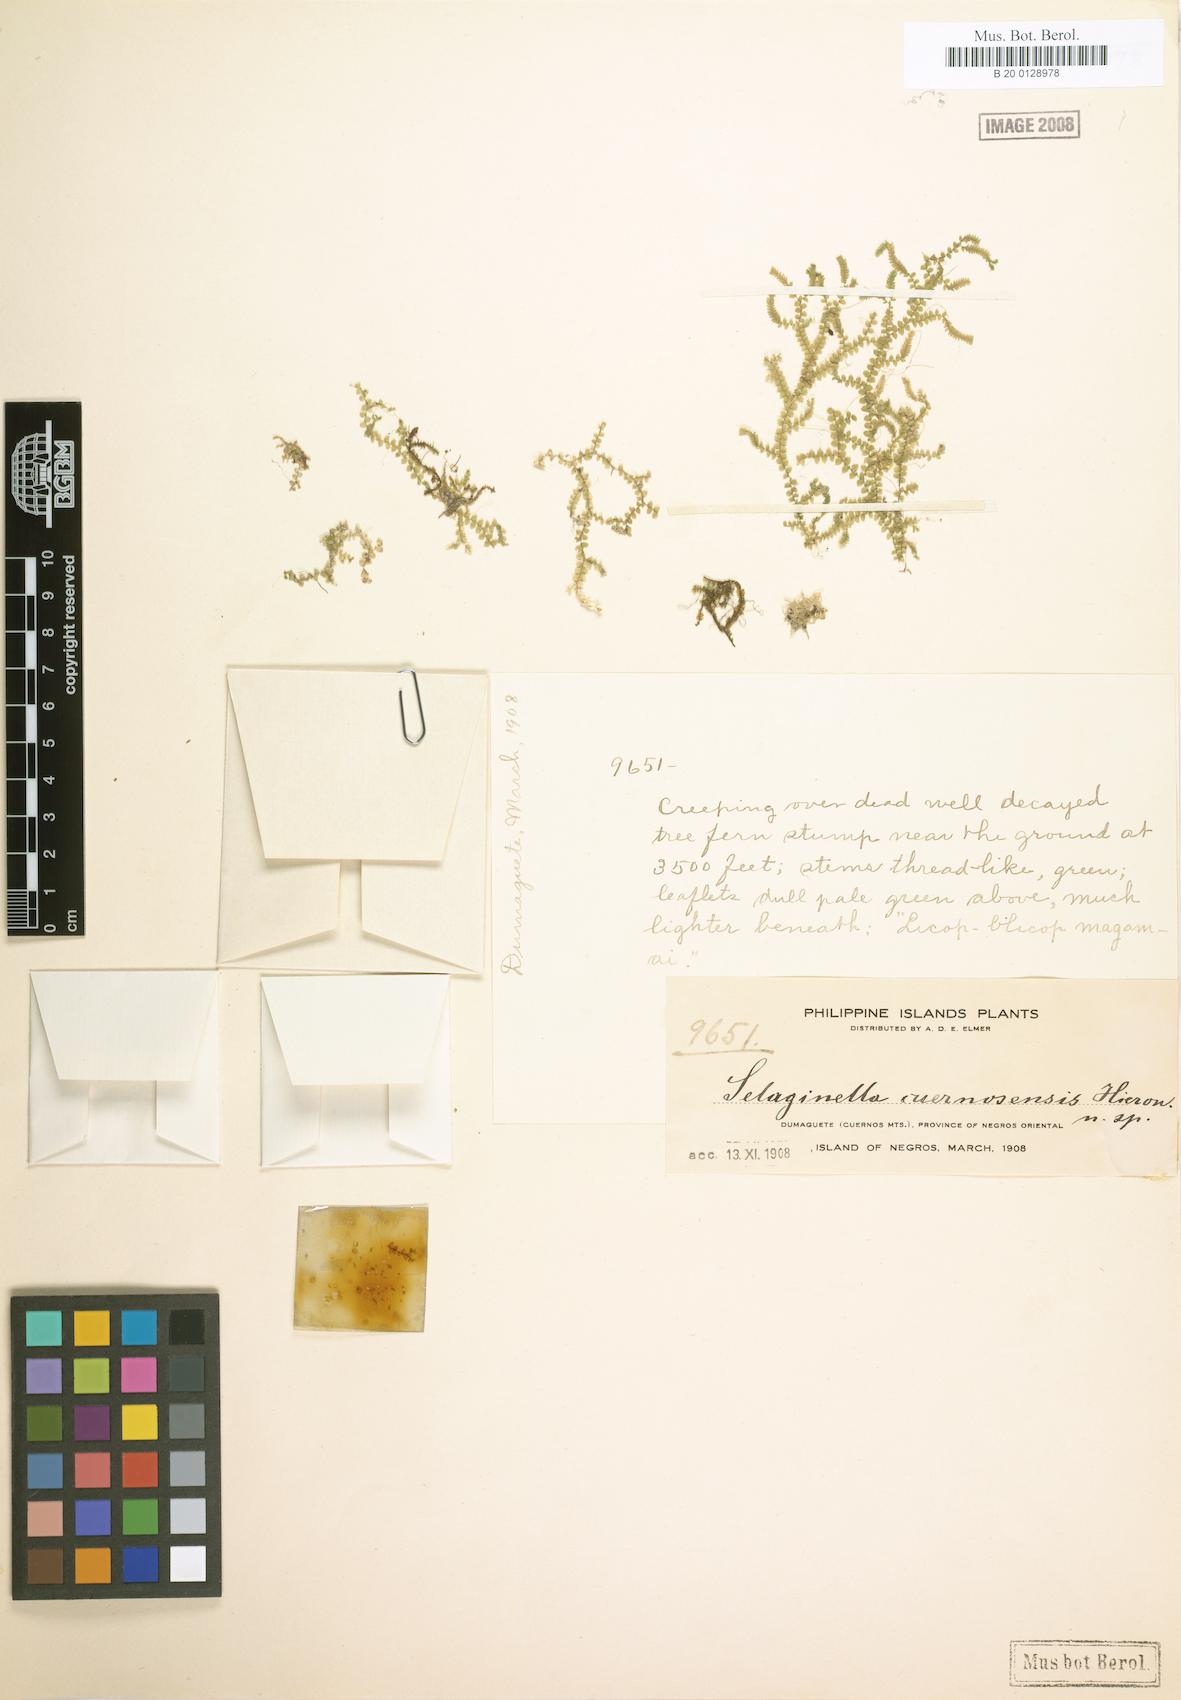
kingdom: Plantae
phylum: Tracheophyta
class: Lycopodiopsida
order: Selaginellales
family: Selaginellaceae
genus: Selaginella
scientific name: Selaginella nummularia
